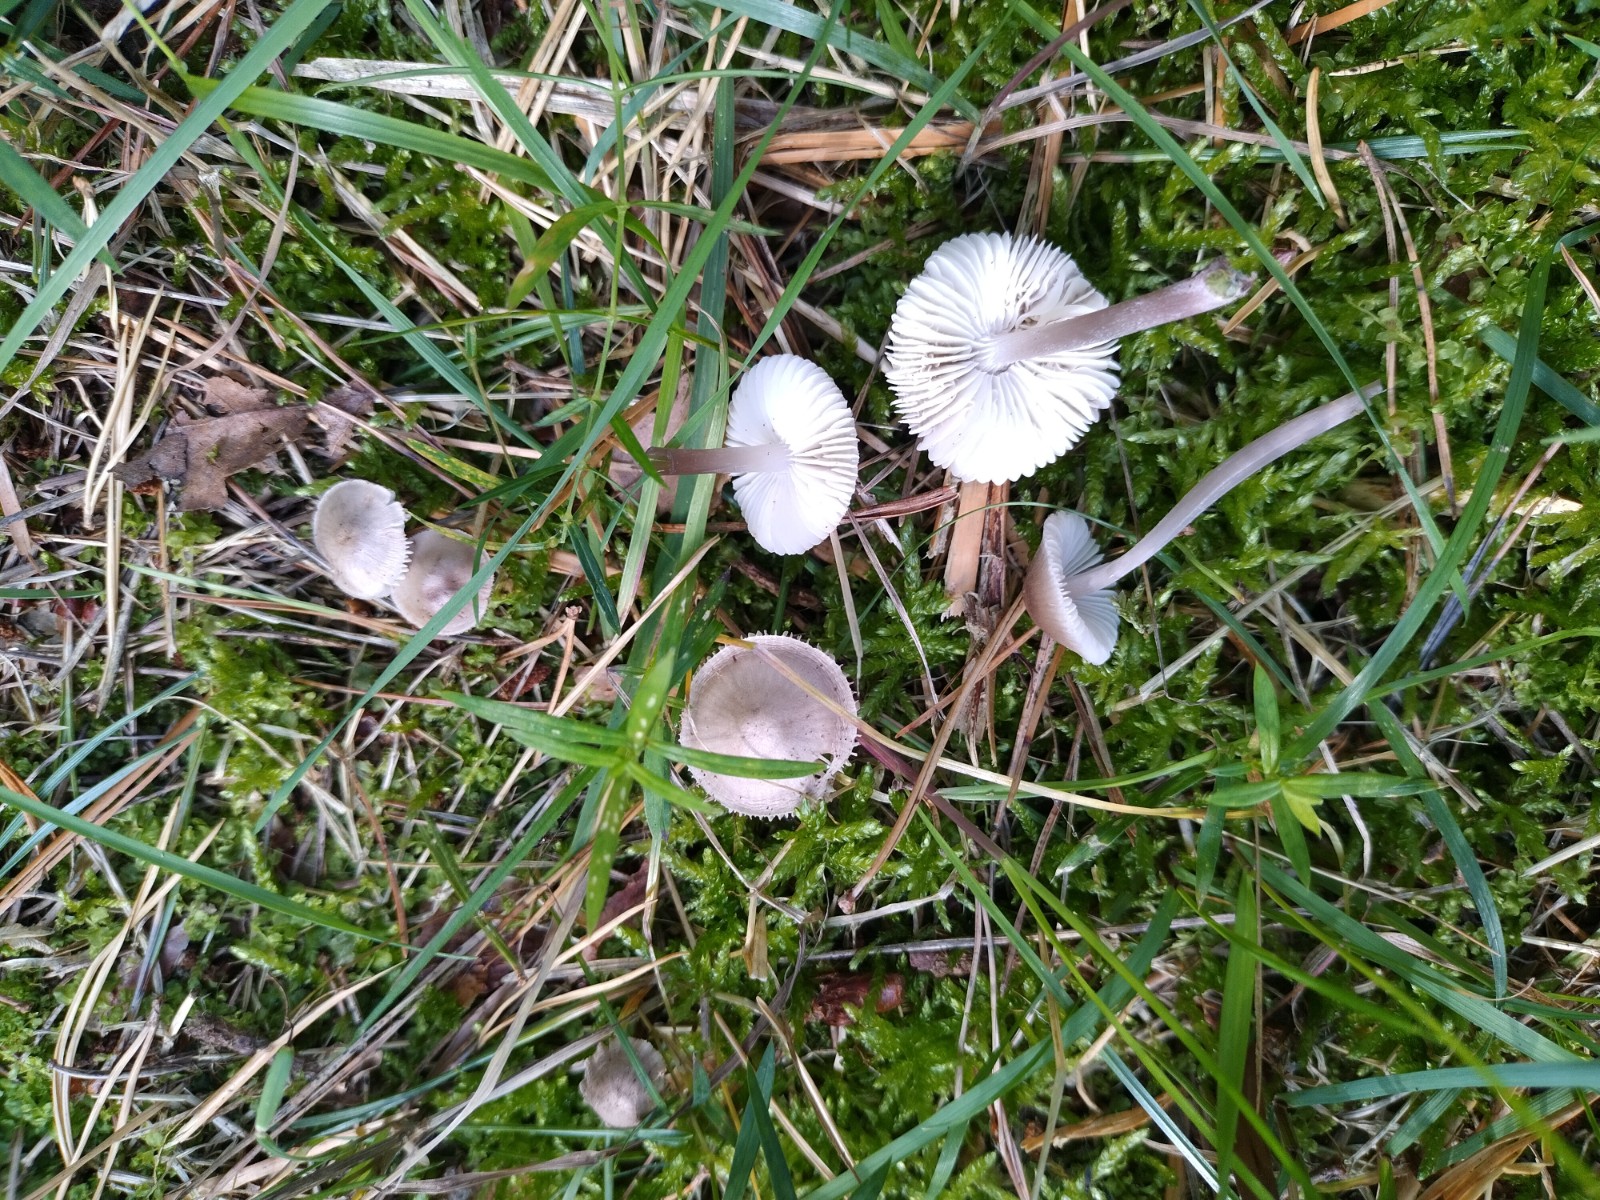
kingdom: Fungi
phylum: Basidiomycota
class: Agaricomycetes
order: Agaricales
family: Mycenaceae
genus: Mycena
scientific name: Mycena
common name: huesvamp
